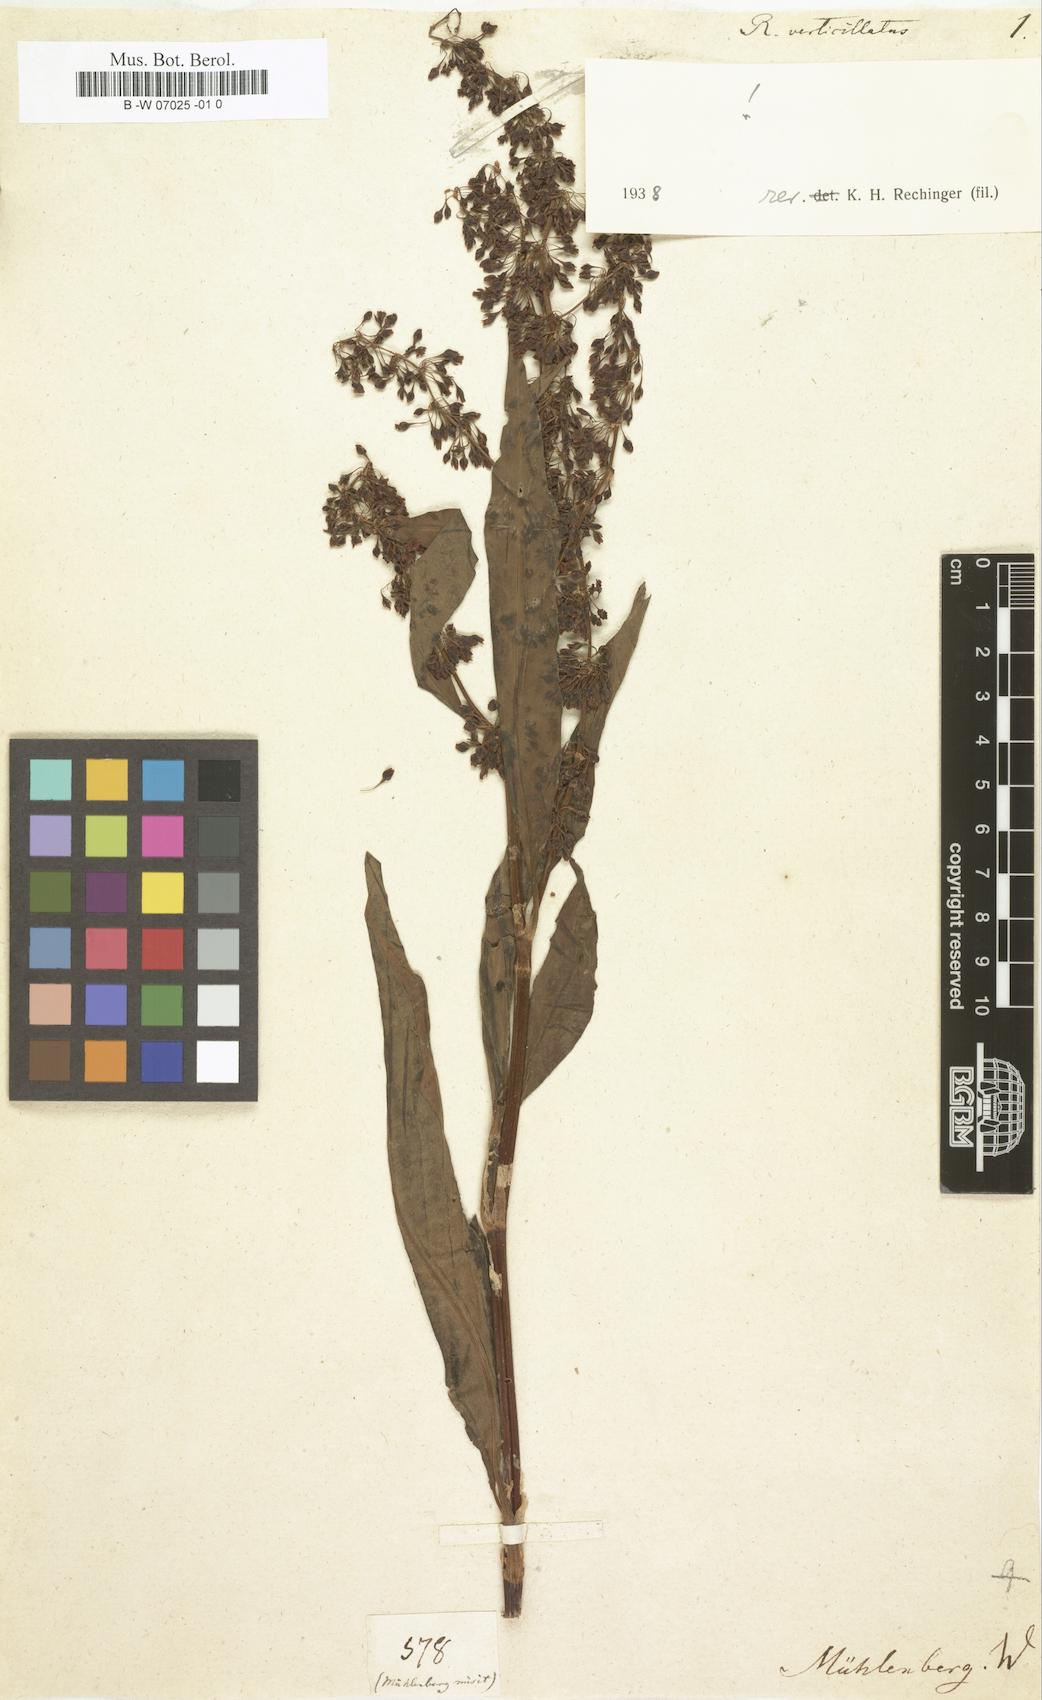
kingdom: Plantae
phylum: Tracheophyta
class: Magnoliopsida
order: Caryophyllales
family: Polygonaceae
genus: Rumex
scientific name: Rumex verticillatus
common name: Swamp dock
